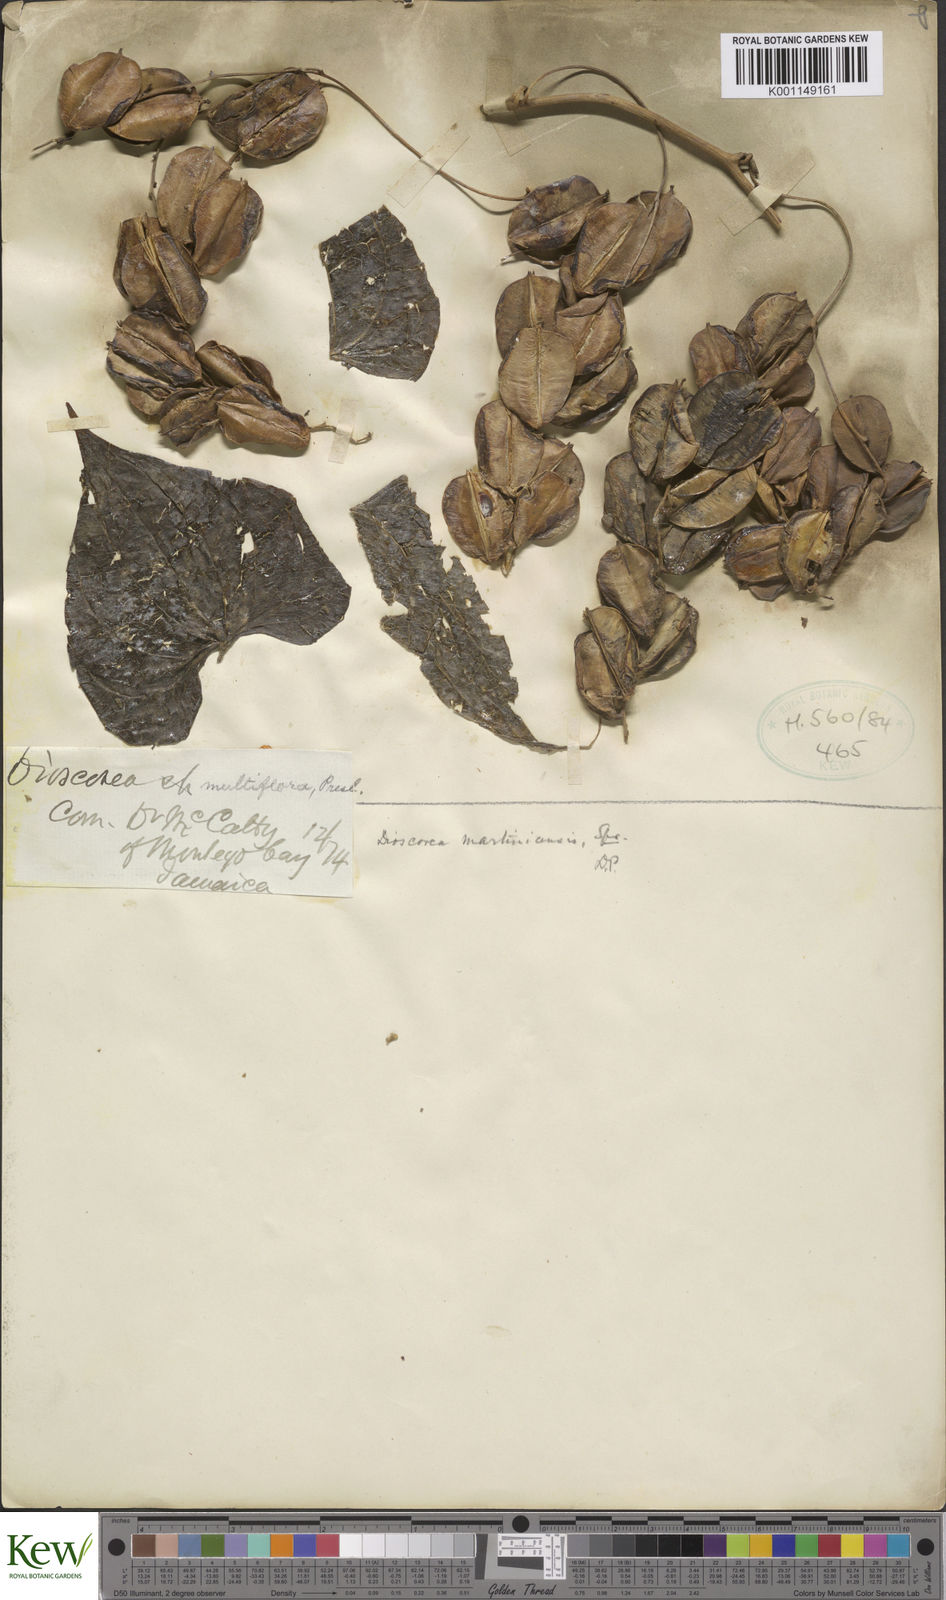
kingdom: Plantae
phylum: Tracheophyta
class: Liliopsida
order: Dioscoreales
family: Dioscoreaceae
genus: Dioscorea
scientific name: Dioscorea polygonoides
